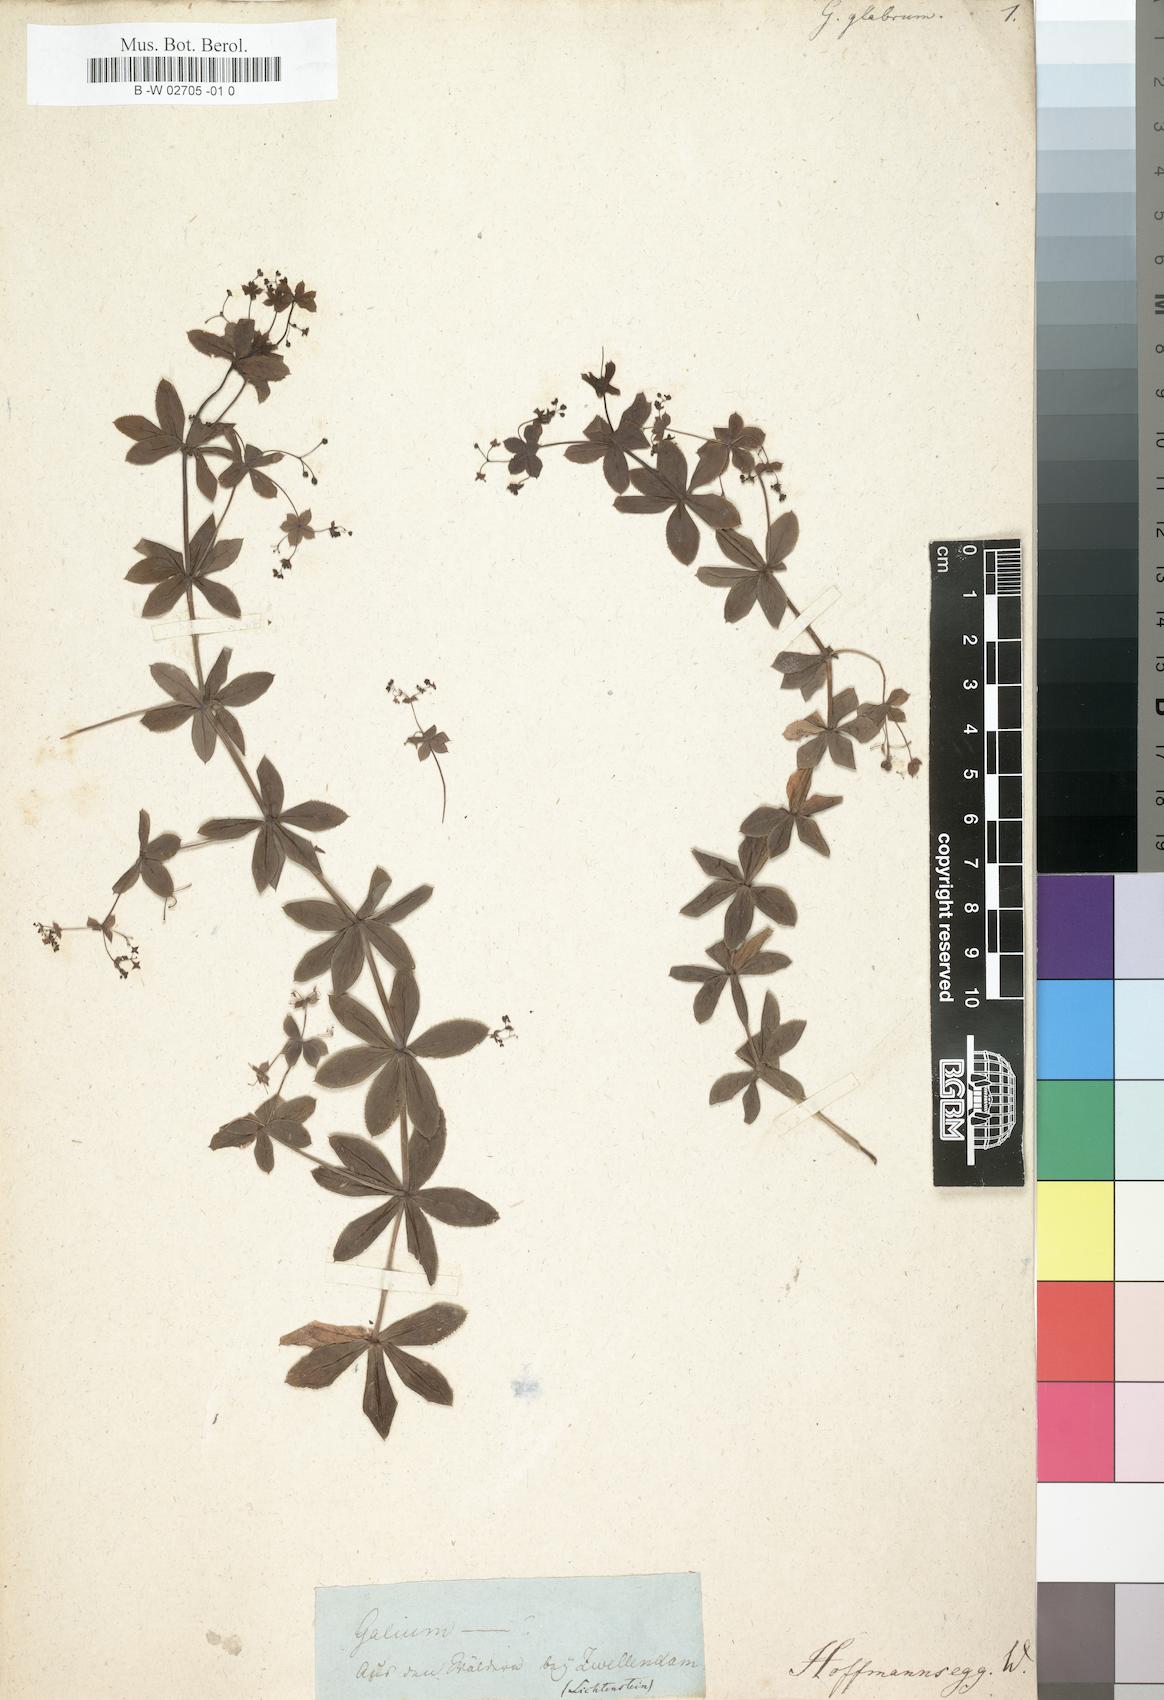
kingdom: Plantae
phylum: Tracheophyta
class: Magnoliopsida
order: Gentianales
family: Rubiaceae
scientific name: Rubiaceae
